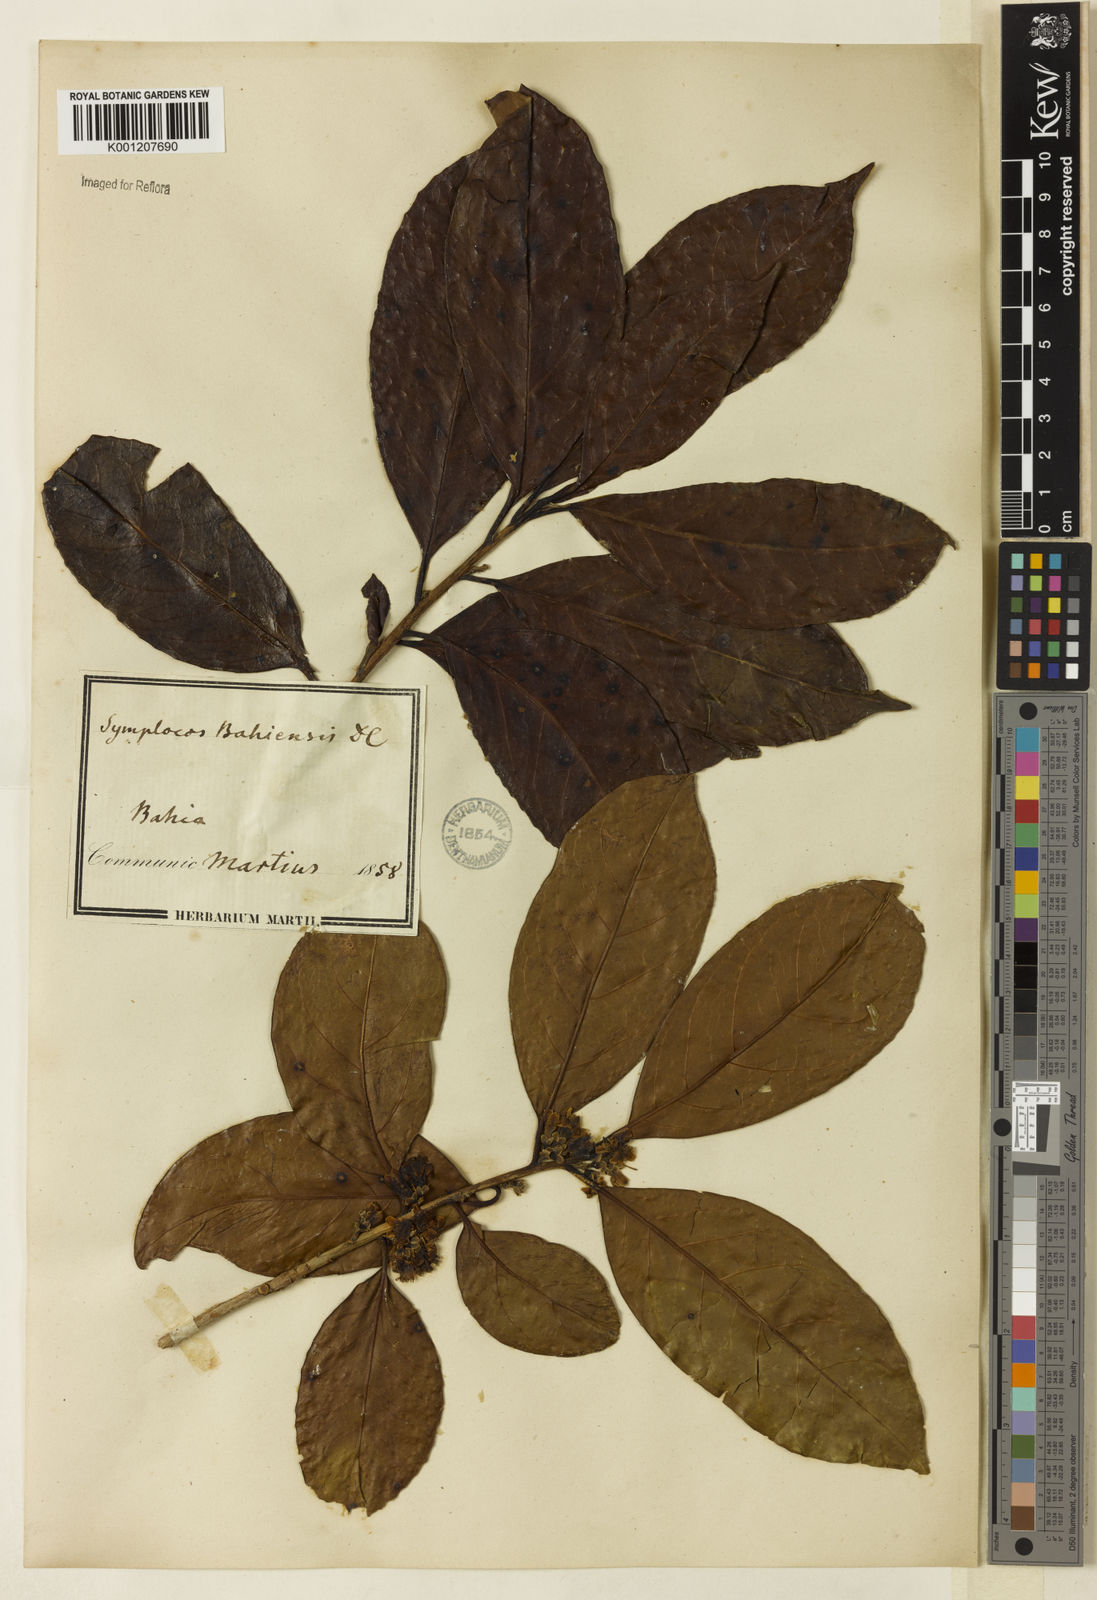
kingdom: Plantae
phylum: Tracheophyta
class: Magnoliopsida
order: Ericales
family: Symplocaceae
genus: Symplocos
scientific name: Symplocos nitens
